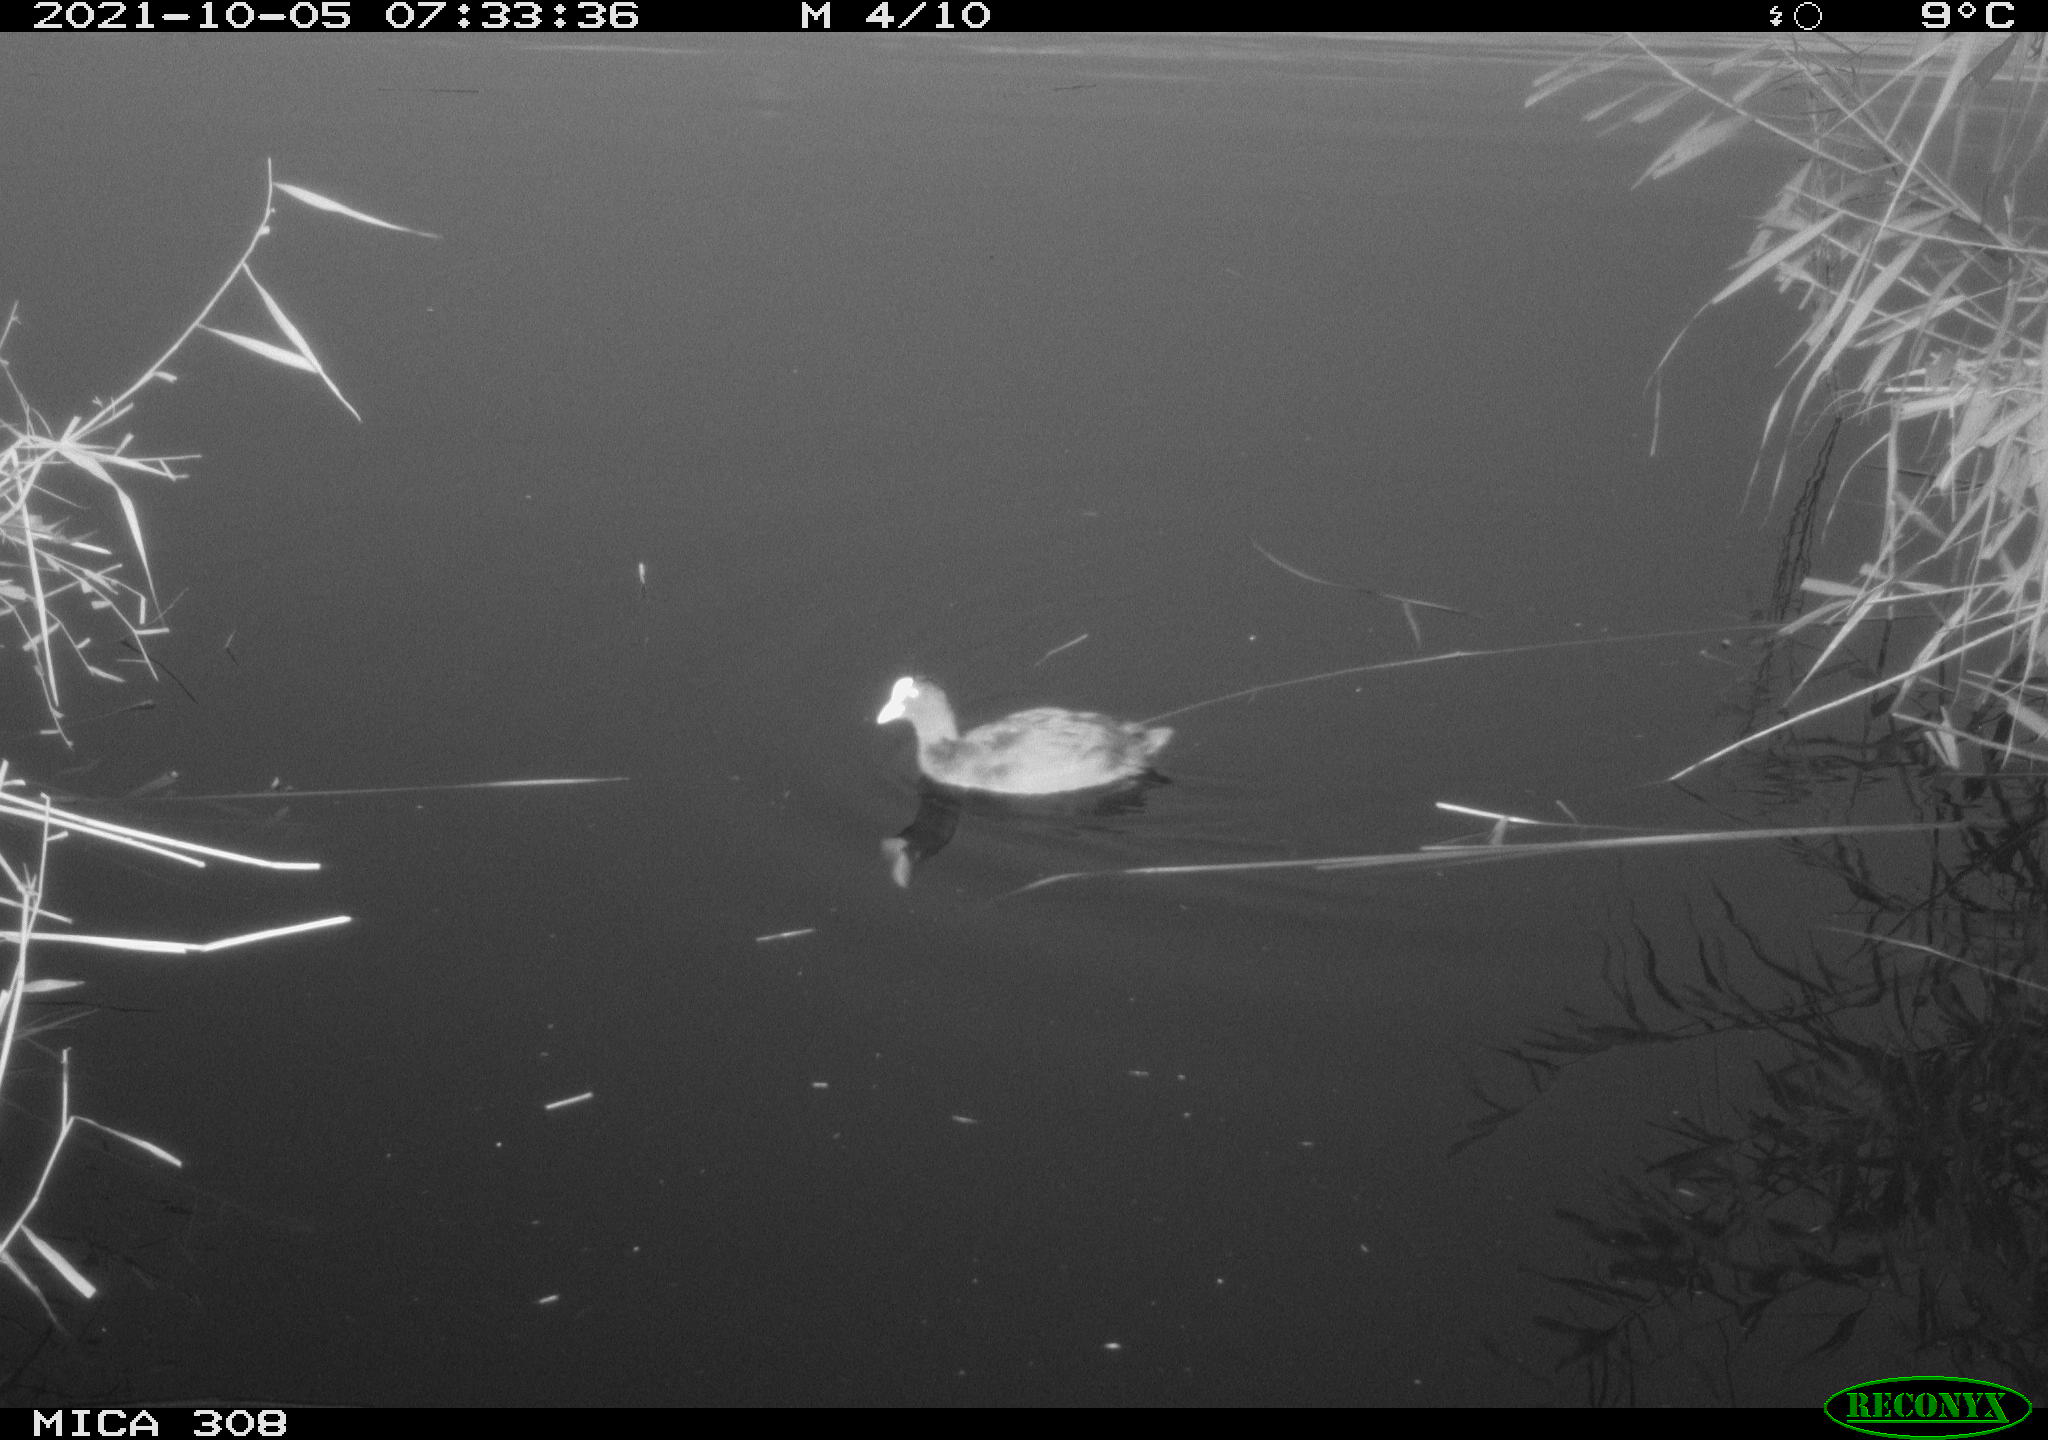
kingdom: Animalia
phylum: Chordata
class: Aves
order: Gruiformes
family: Rallidae
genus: Fulica
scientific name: Fulica atra
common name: Eurasian coot
